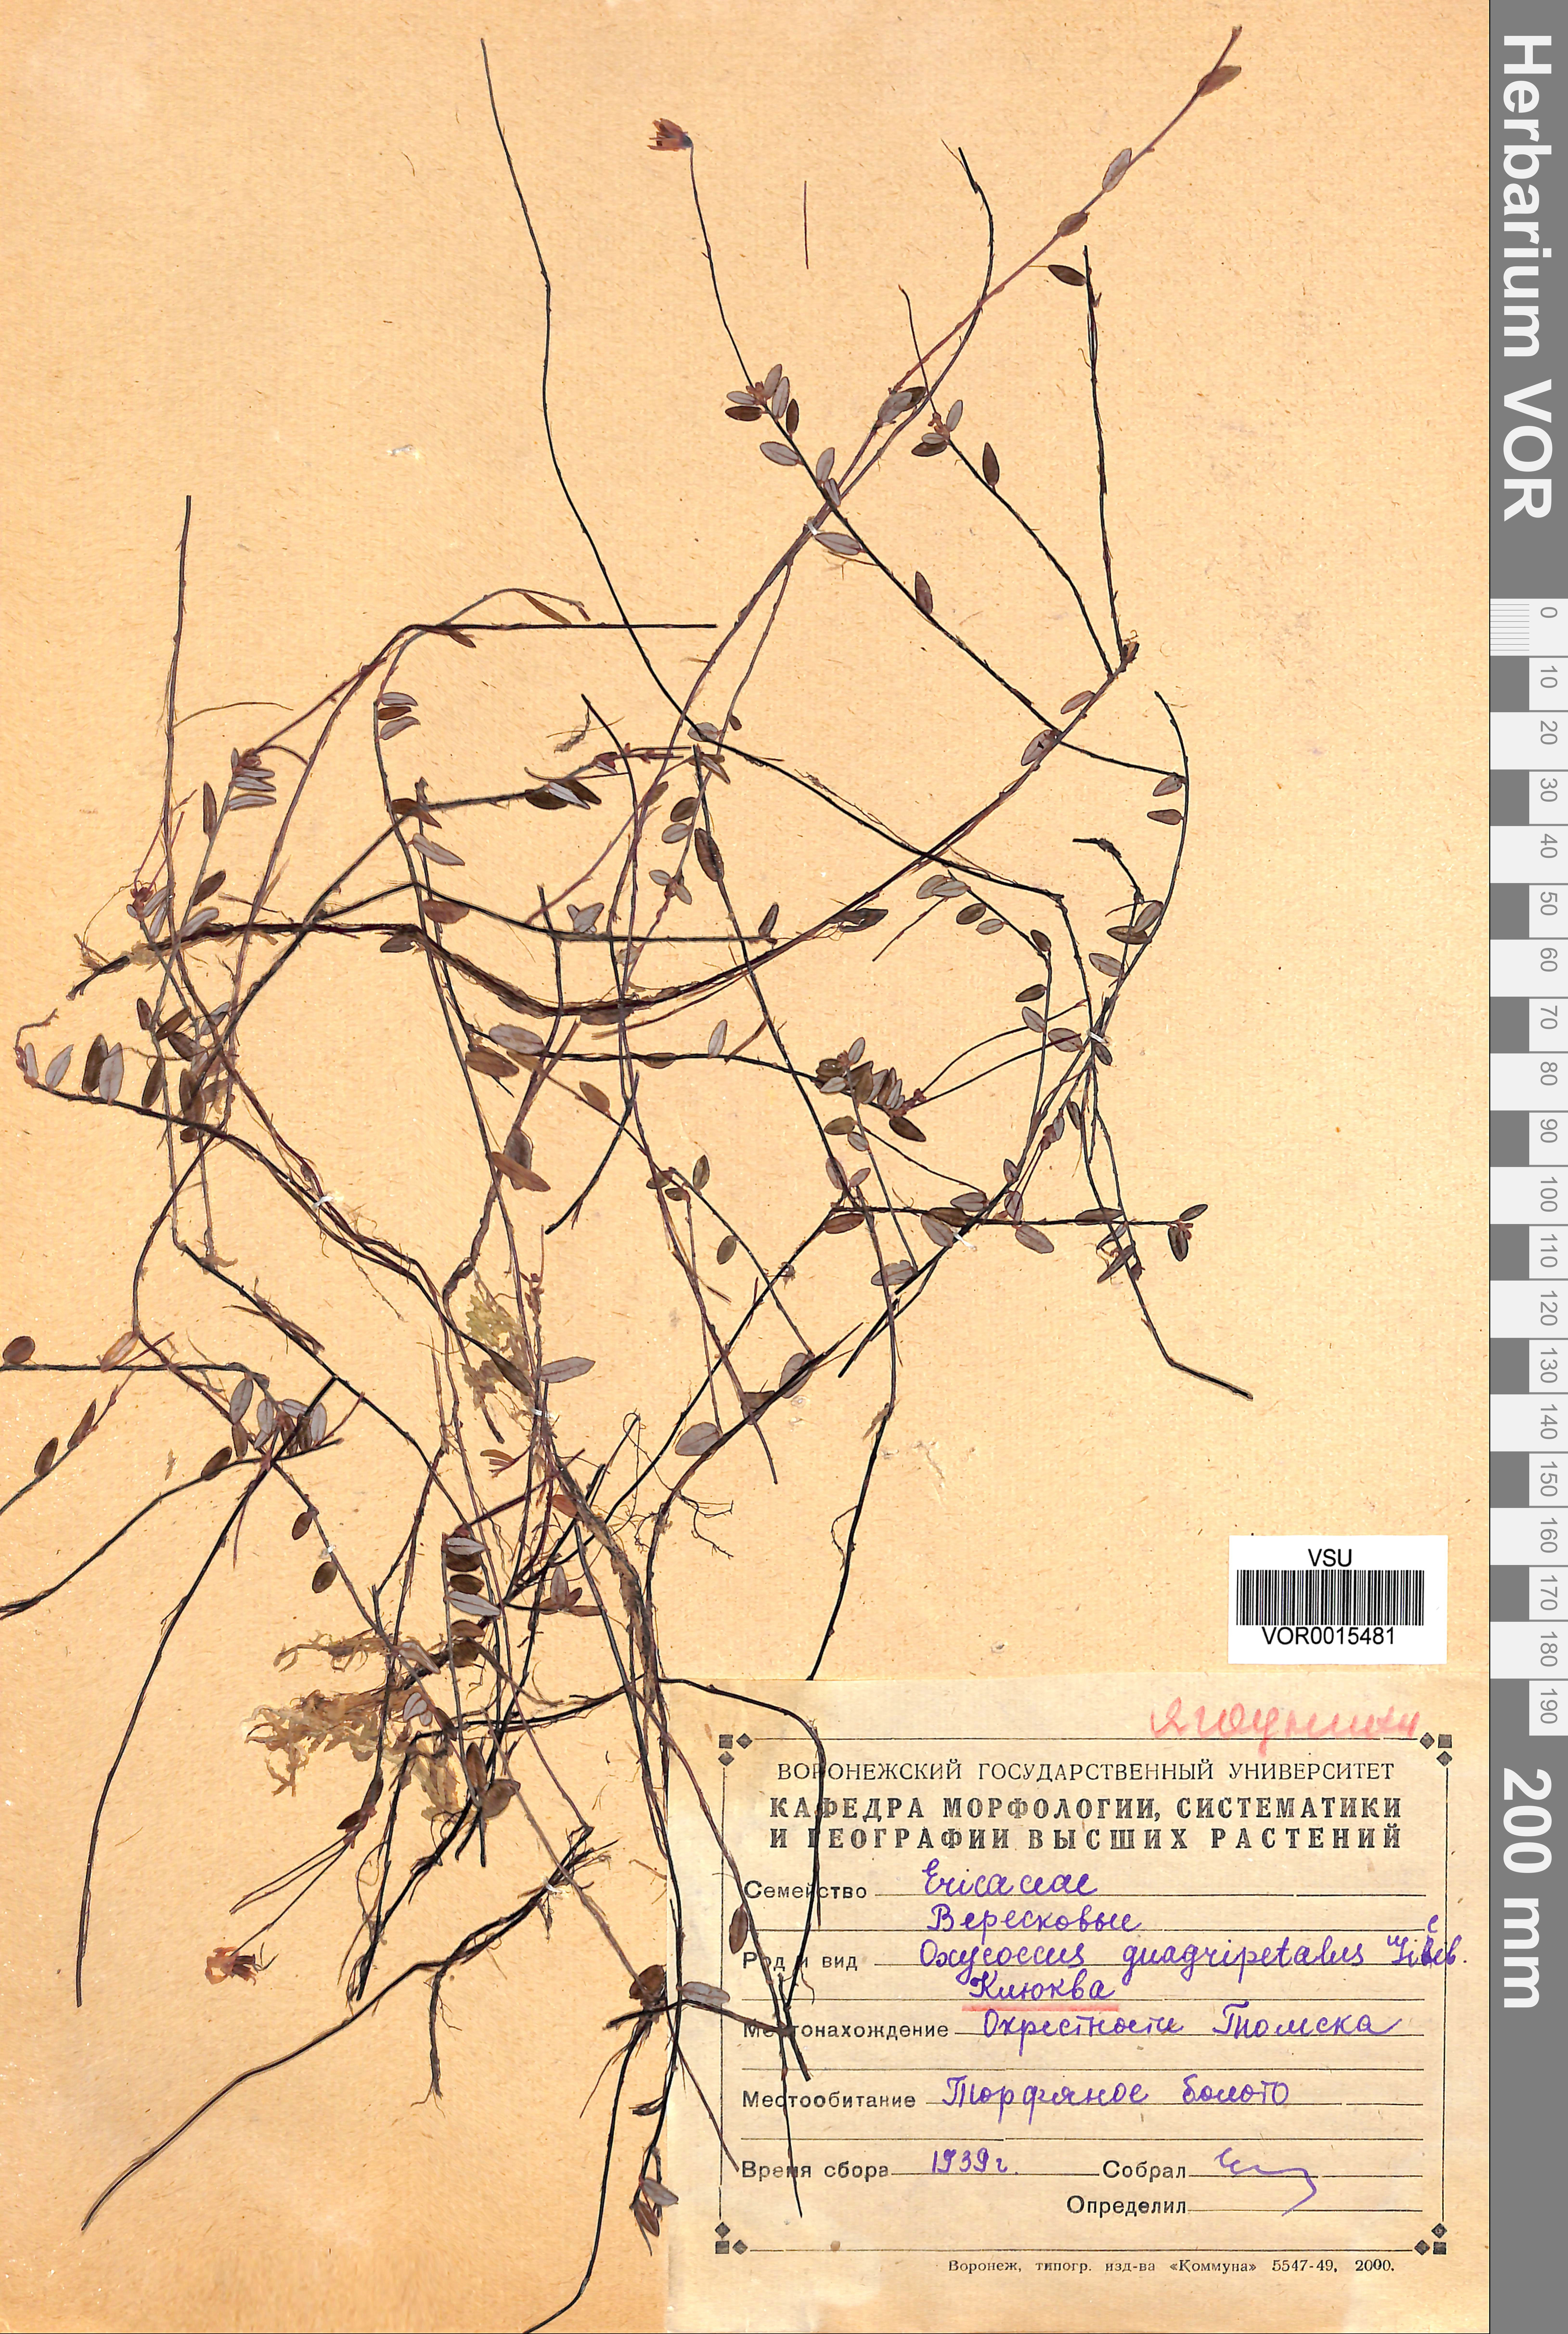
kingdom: Plantae
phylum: Tracheophyta
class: Magnoliopsida
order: Ericales
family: Ericaceae
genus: Vaccinium
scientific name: Vaccinium oxycoccos
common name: Cranberry
